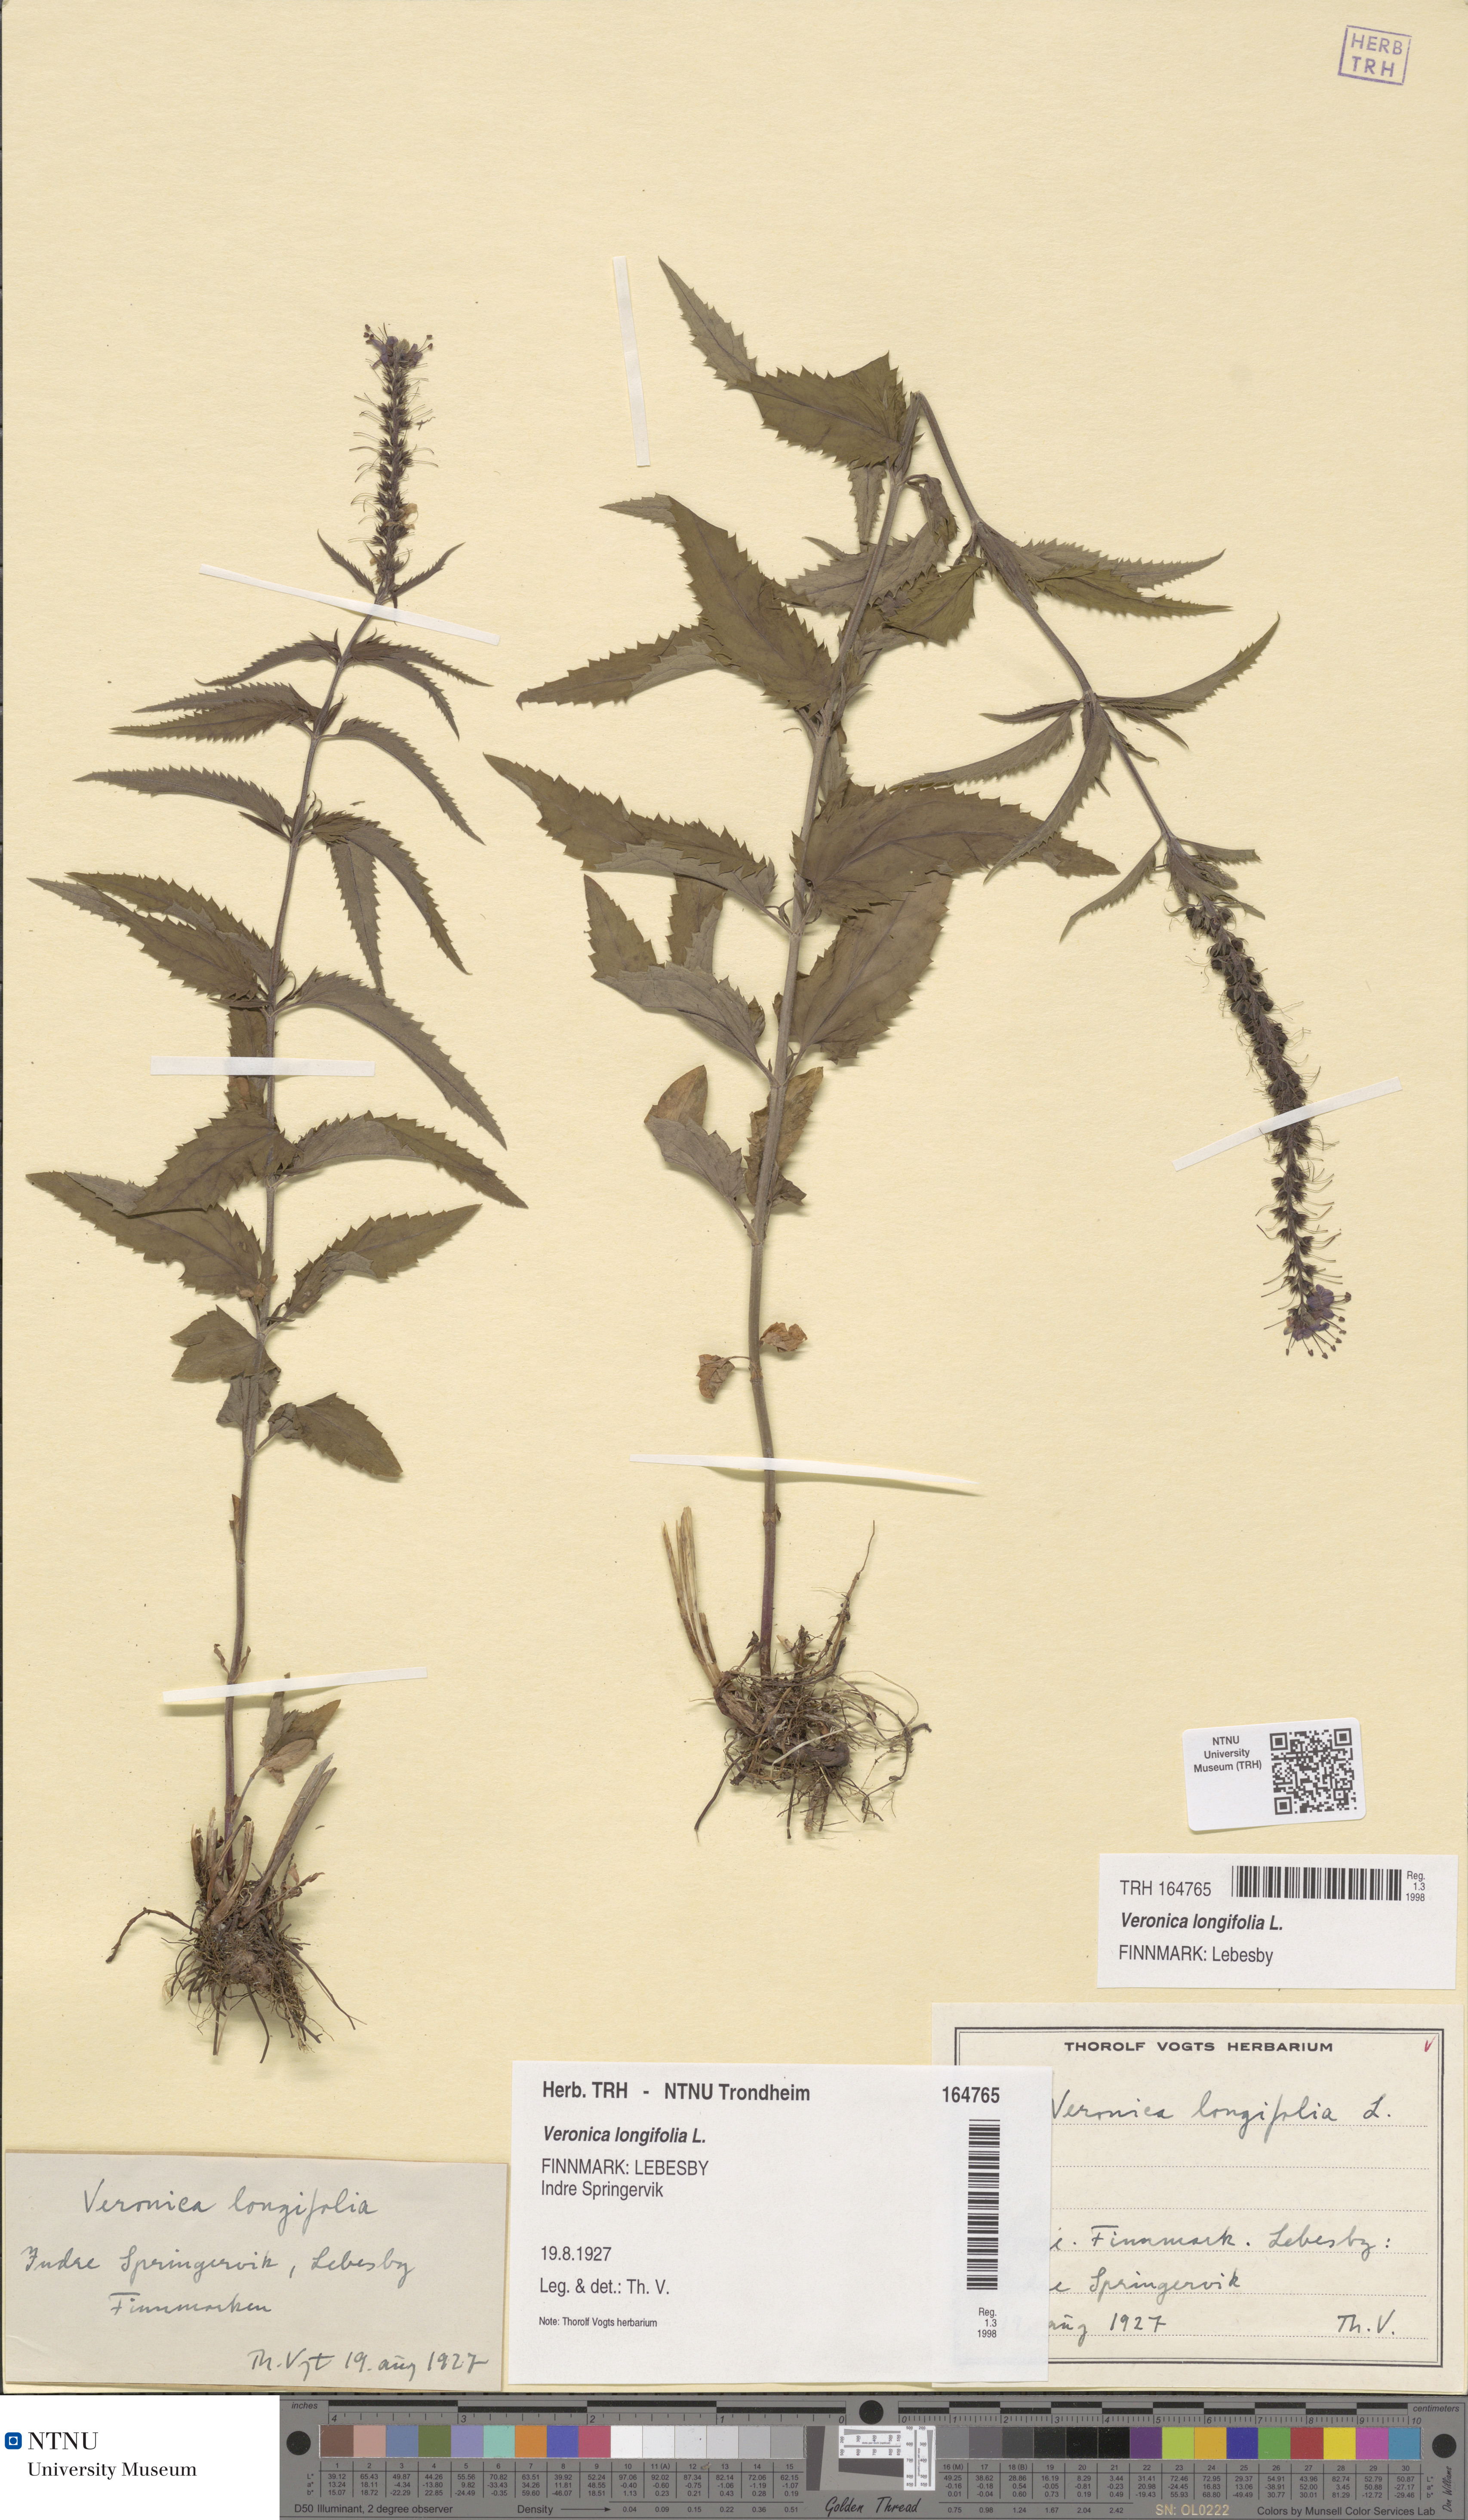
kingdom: Plantae
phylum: Tracheophyta
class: Magnoliopsida
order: Lamiales
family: Plantaginaceae
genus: Veronica
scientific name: Veronica longifolia
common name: Garden speedwell
